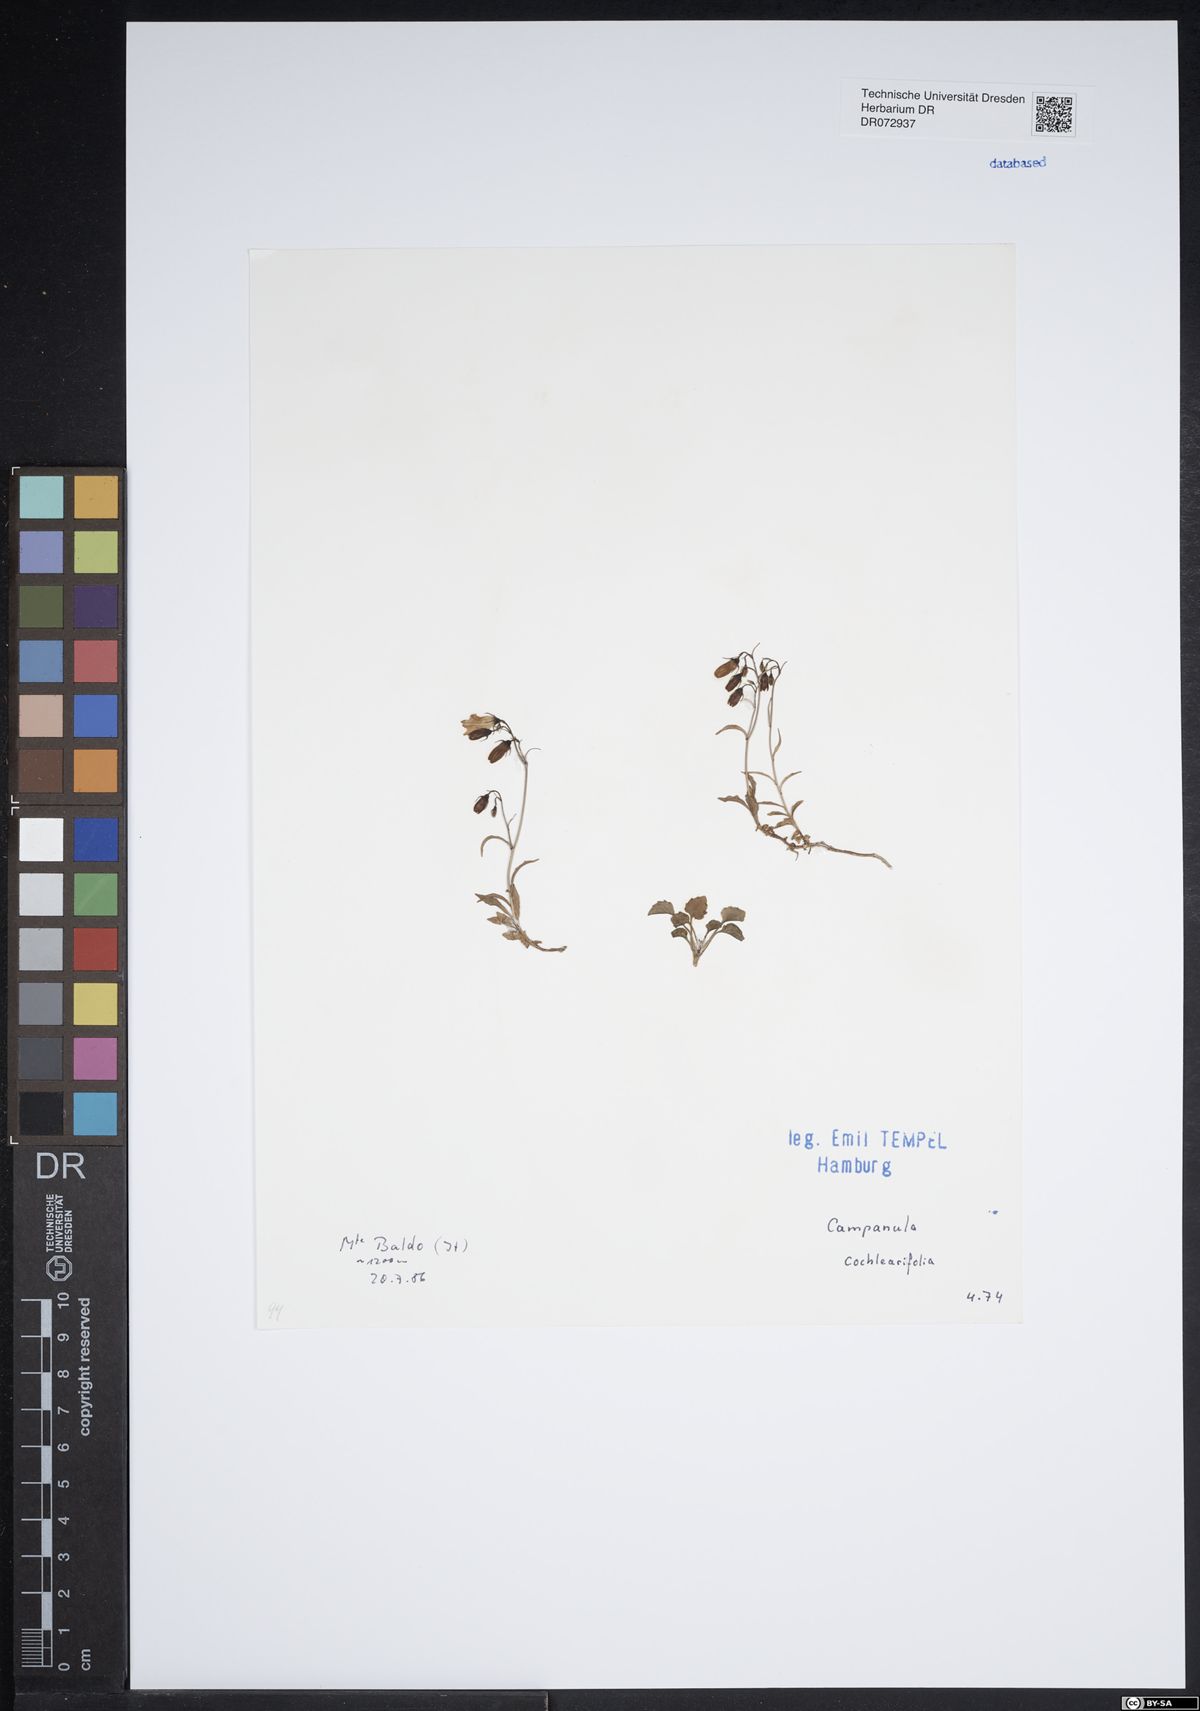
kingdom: Plantae
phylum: Tracheophyta
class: Magnoliopsida
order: Asterales
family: Campanulaceae
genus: Campanula
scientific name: Campanula cochleariifolia
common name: Fairies'-thimbles
